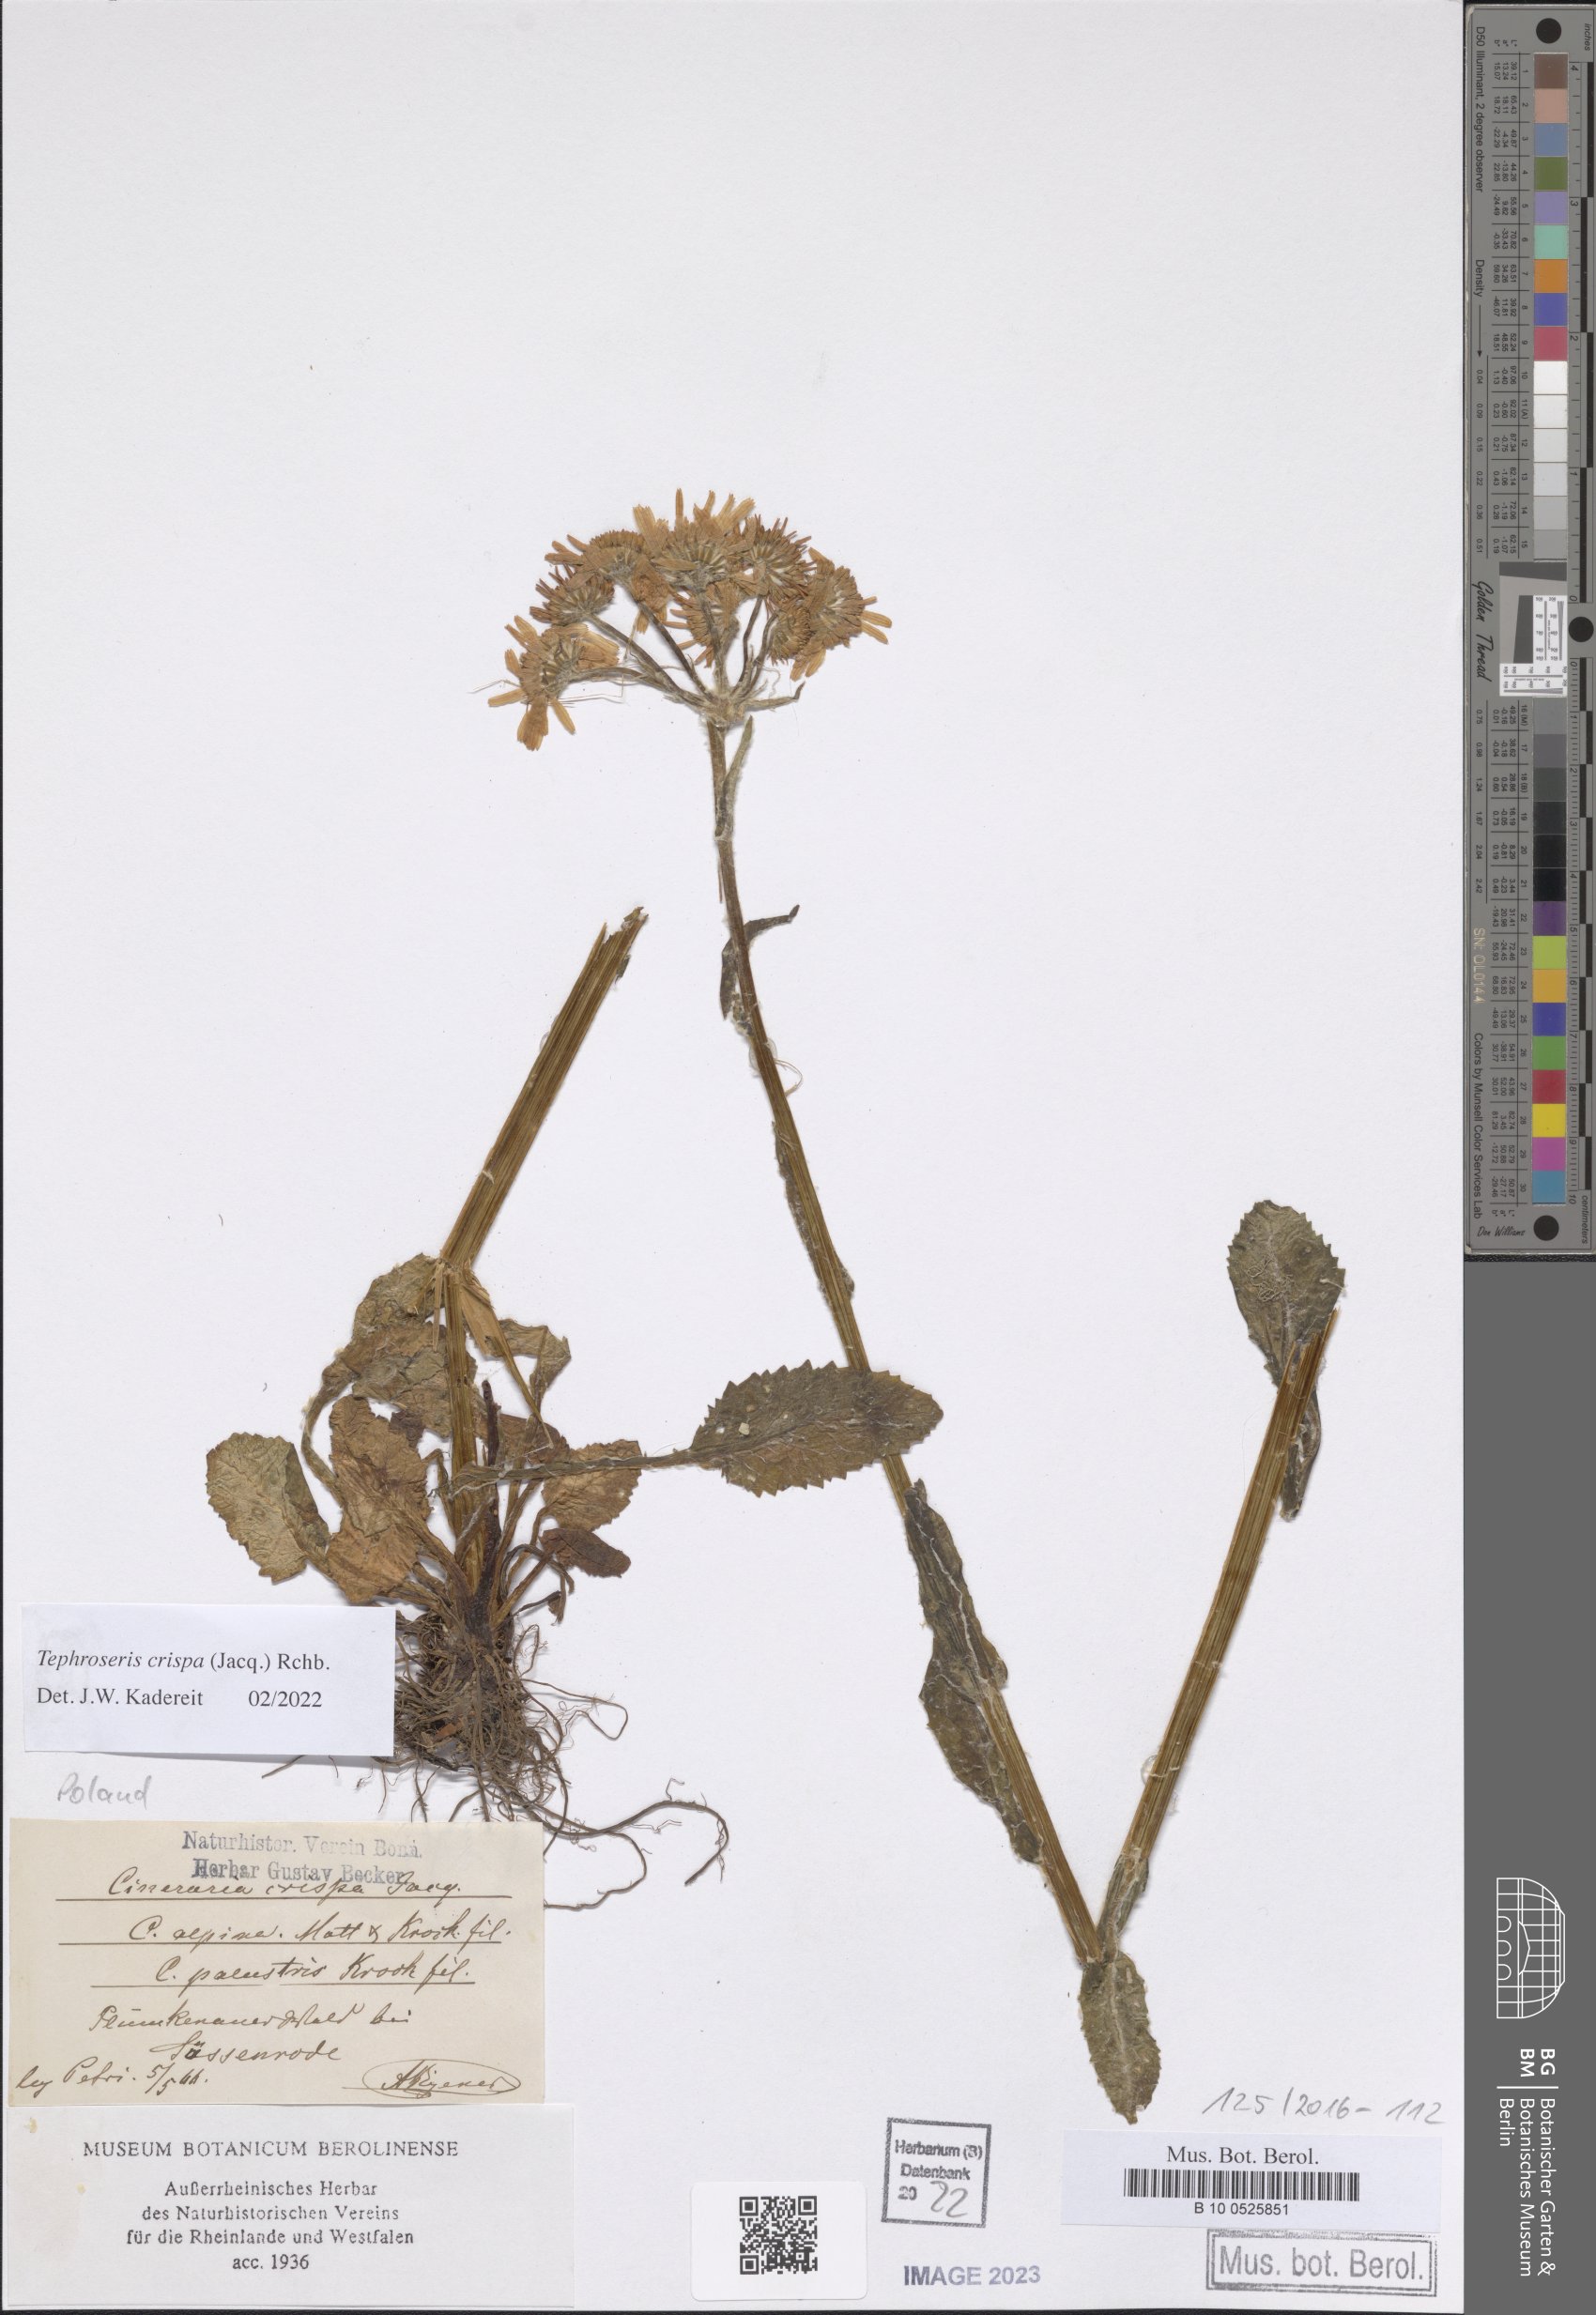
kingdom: Plantae
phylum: Tracheophyta
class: Magnoliopsida
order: Asterales
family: Asteraceae
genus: Tephroseris
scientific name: Tephroseris crispa
